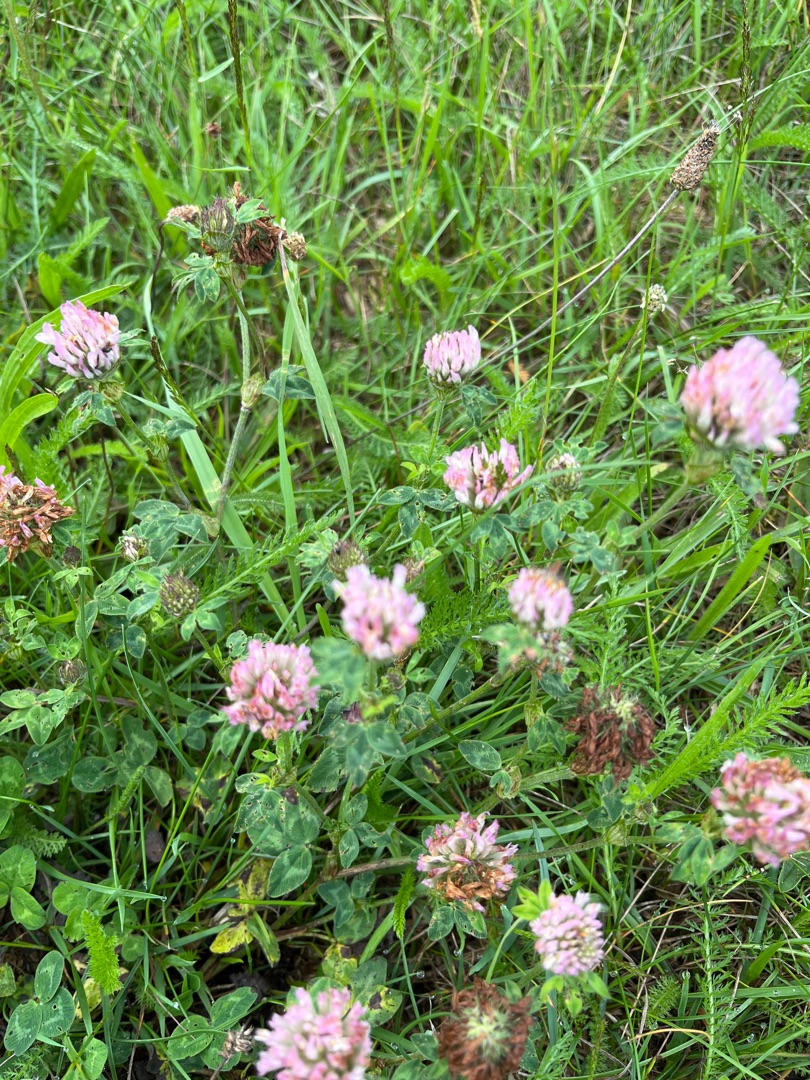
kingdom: Plantae
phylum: Tracheophyta
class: Magnoliopsida
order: Fabales
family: Fabaceae
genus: Trifolium
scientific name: Trifolium pratense
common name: Rød-kløver
